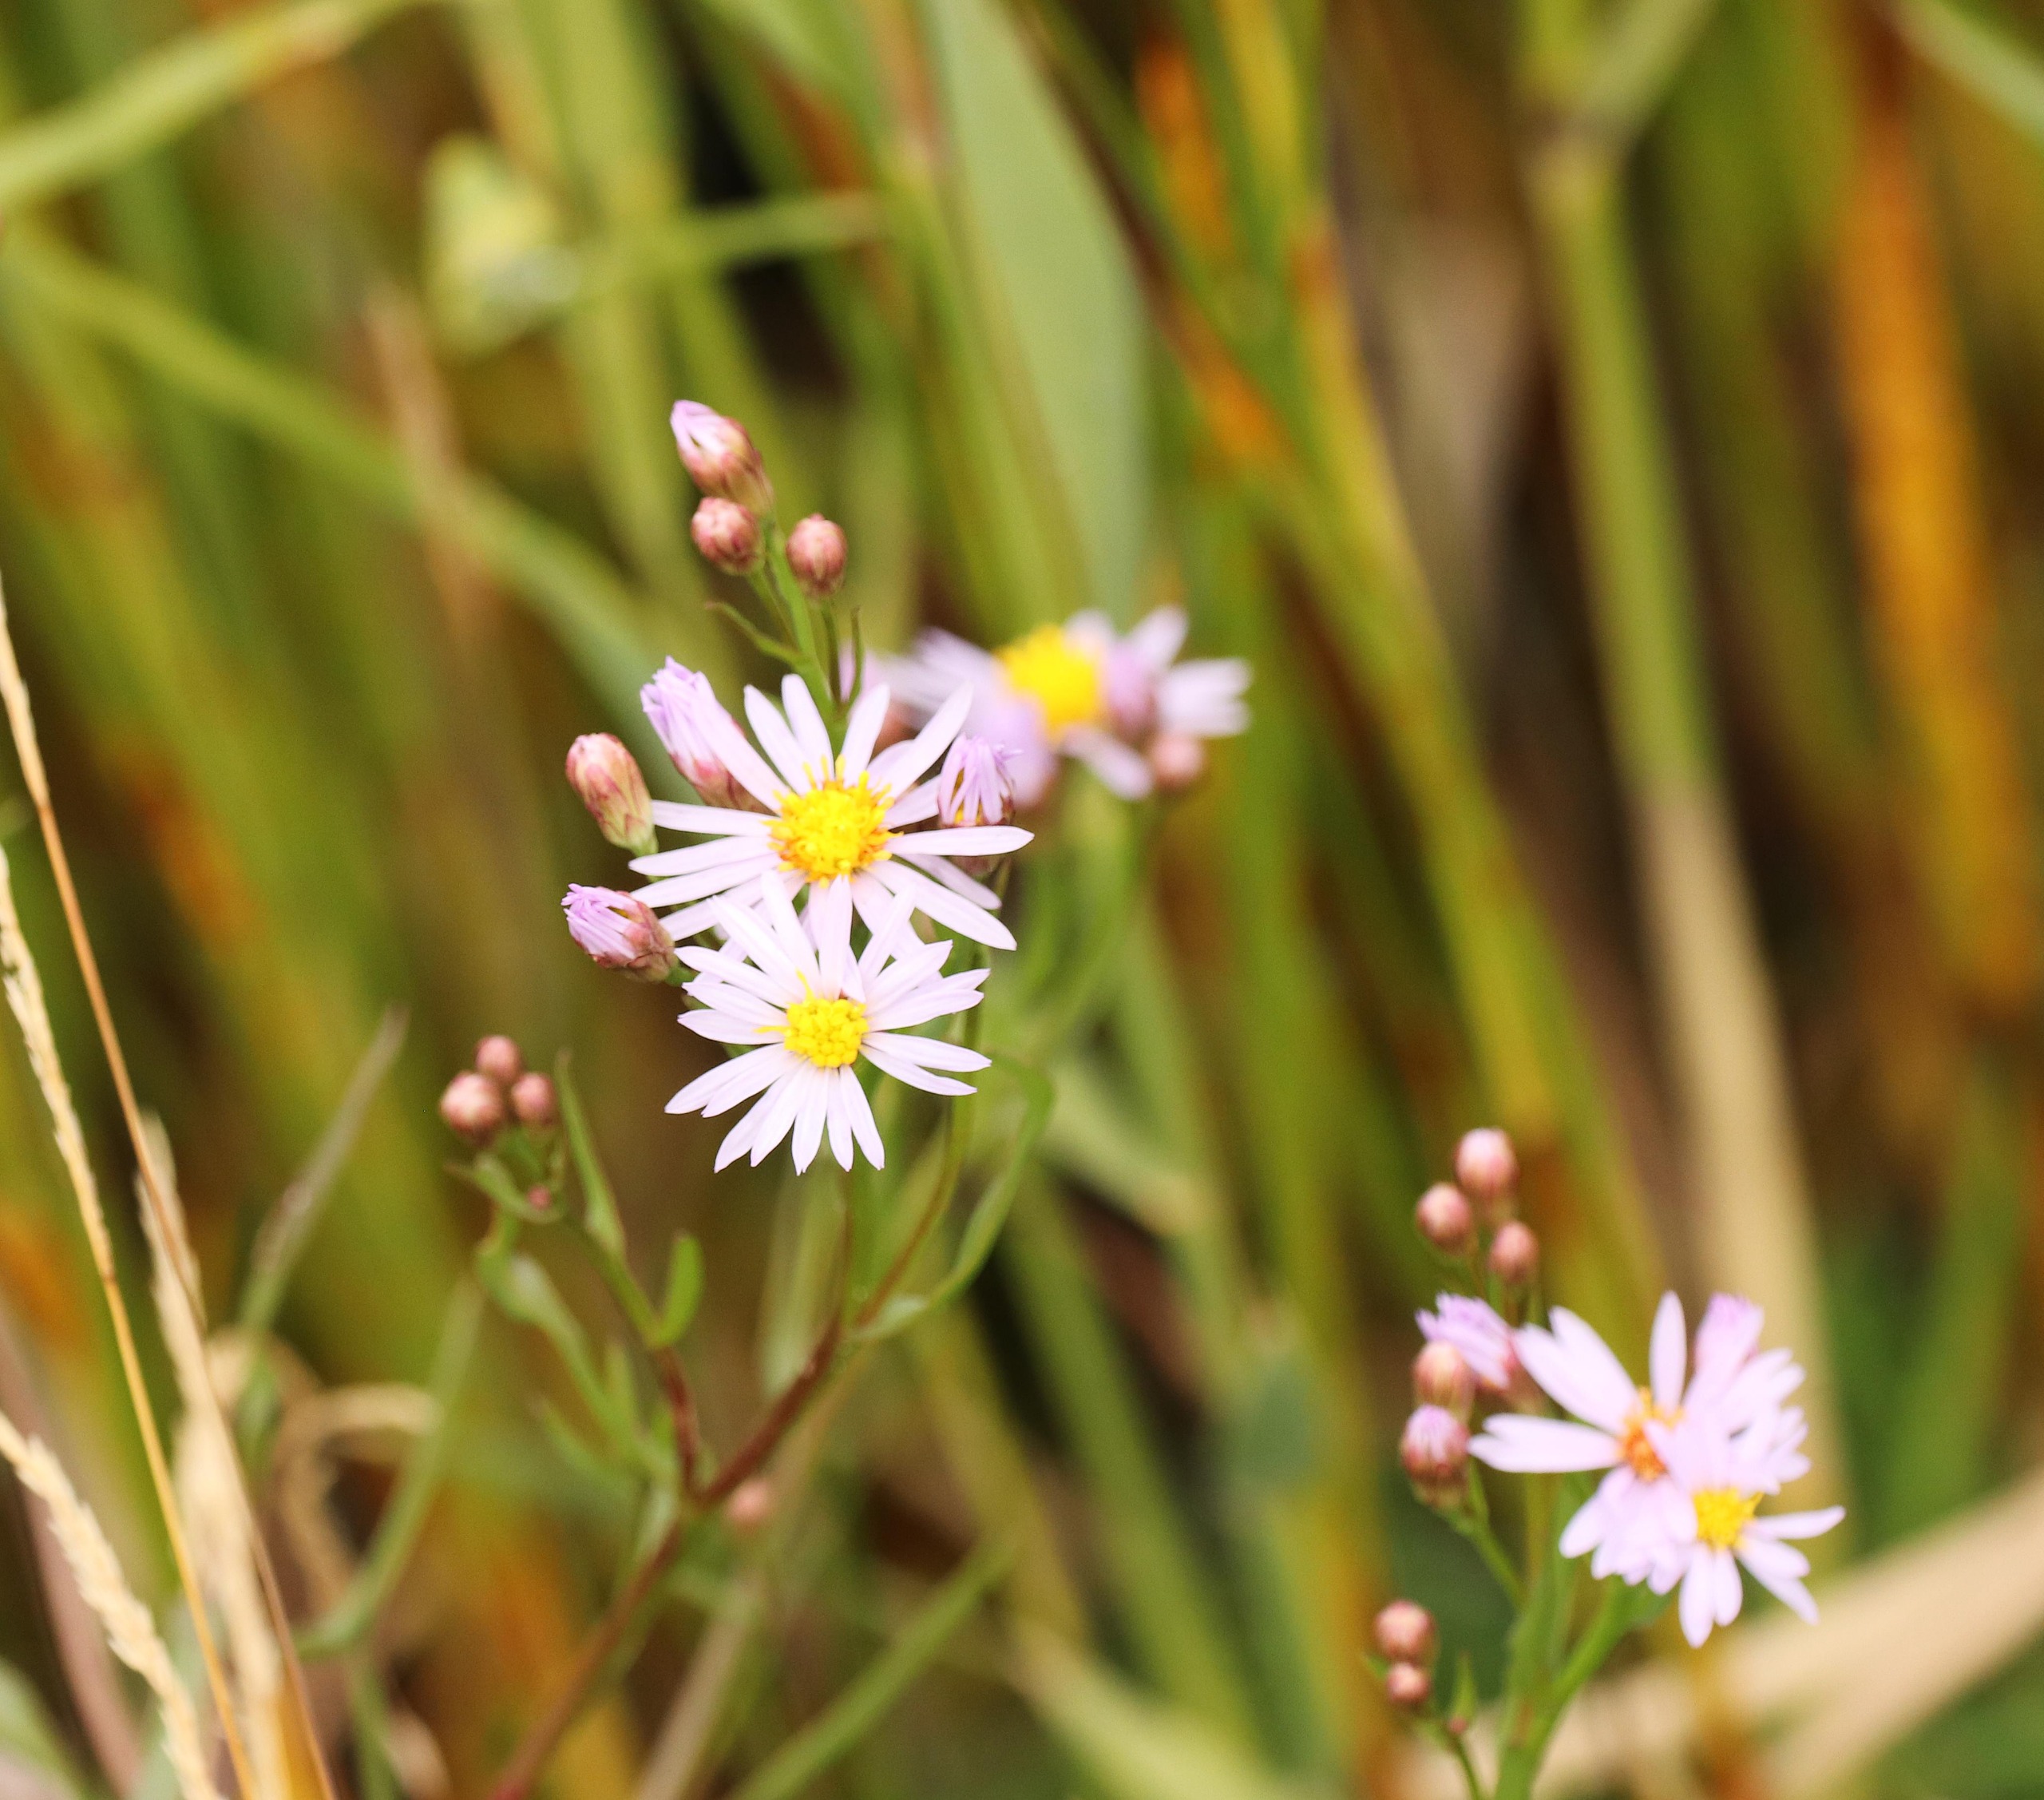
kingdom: Plantae
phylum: Tracheophyta
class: Magnoliopsida
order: Asterales
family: Asteraceae
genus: Tripolium
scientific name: Tripolium pannonicum
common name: Strandasters
